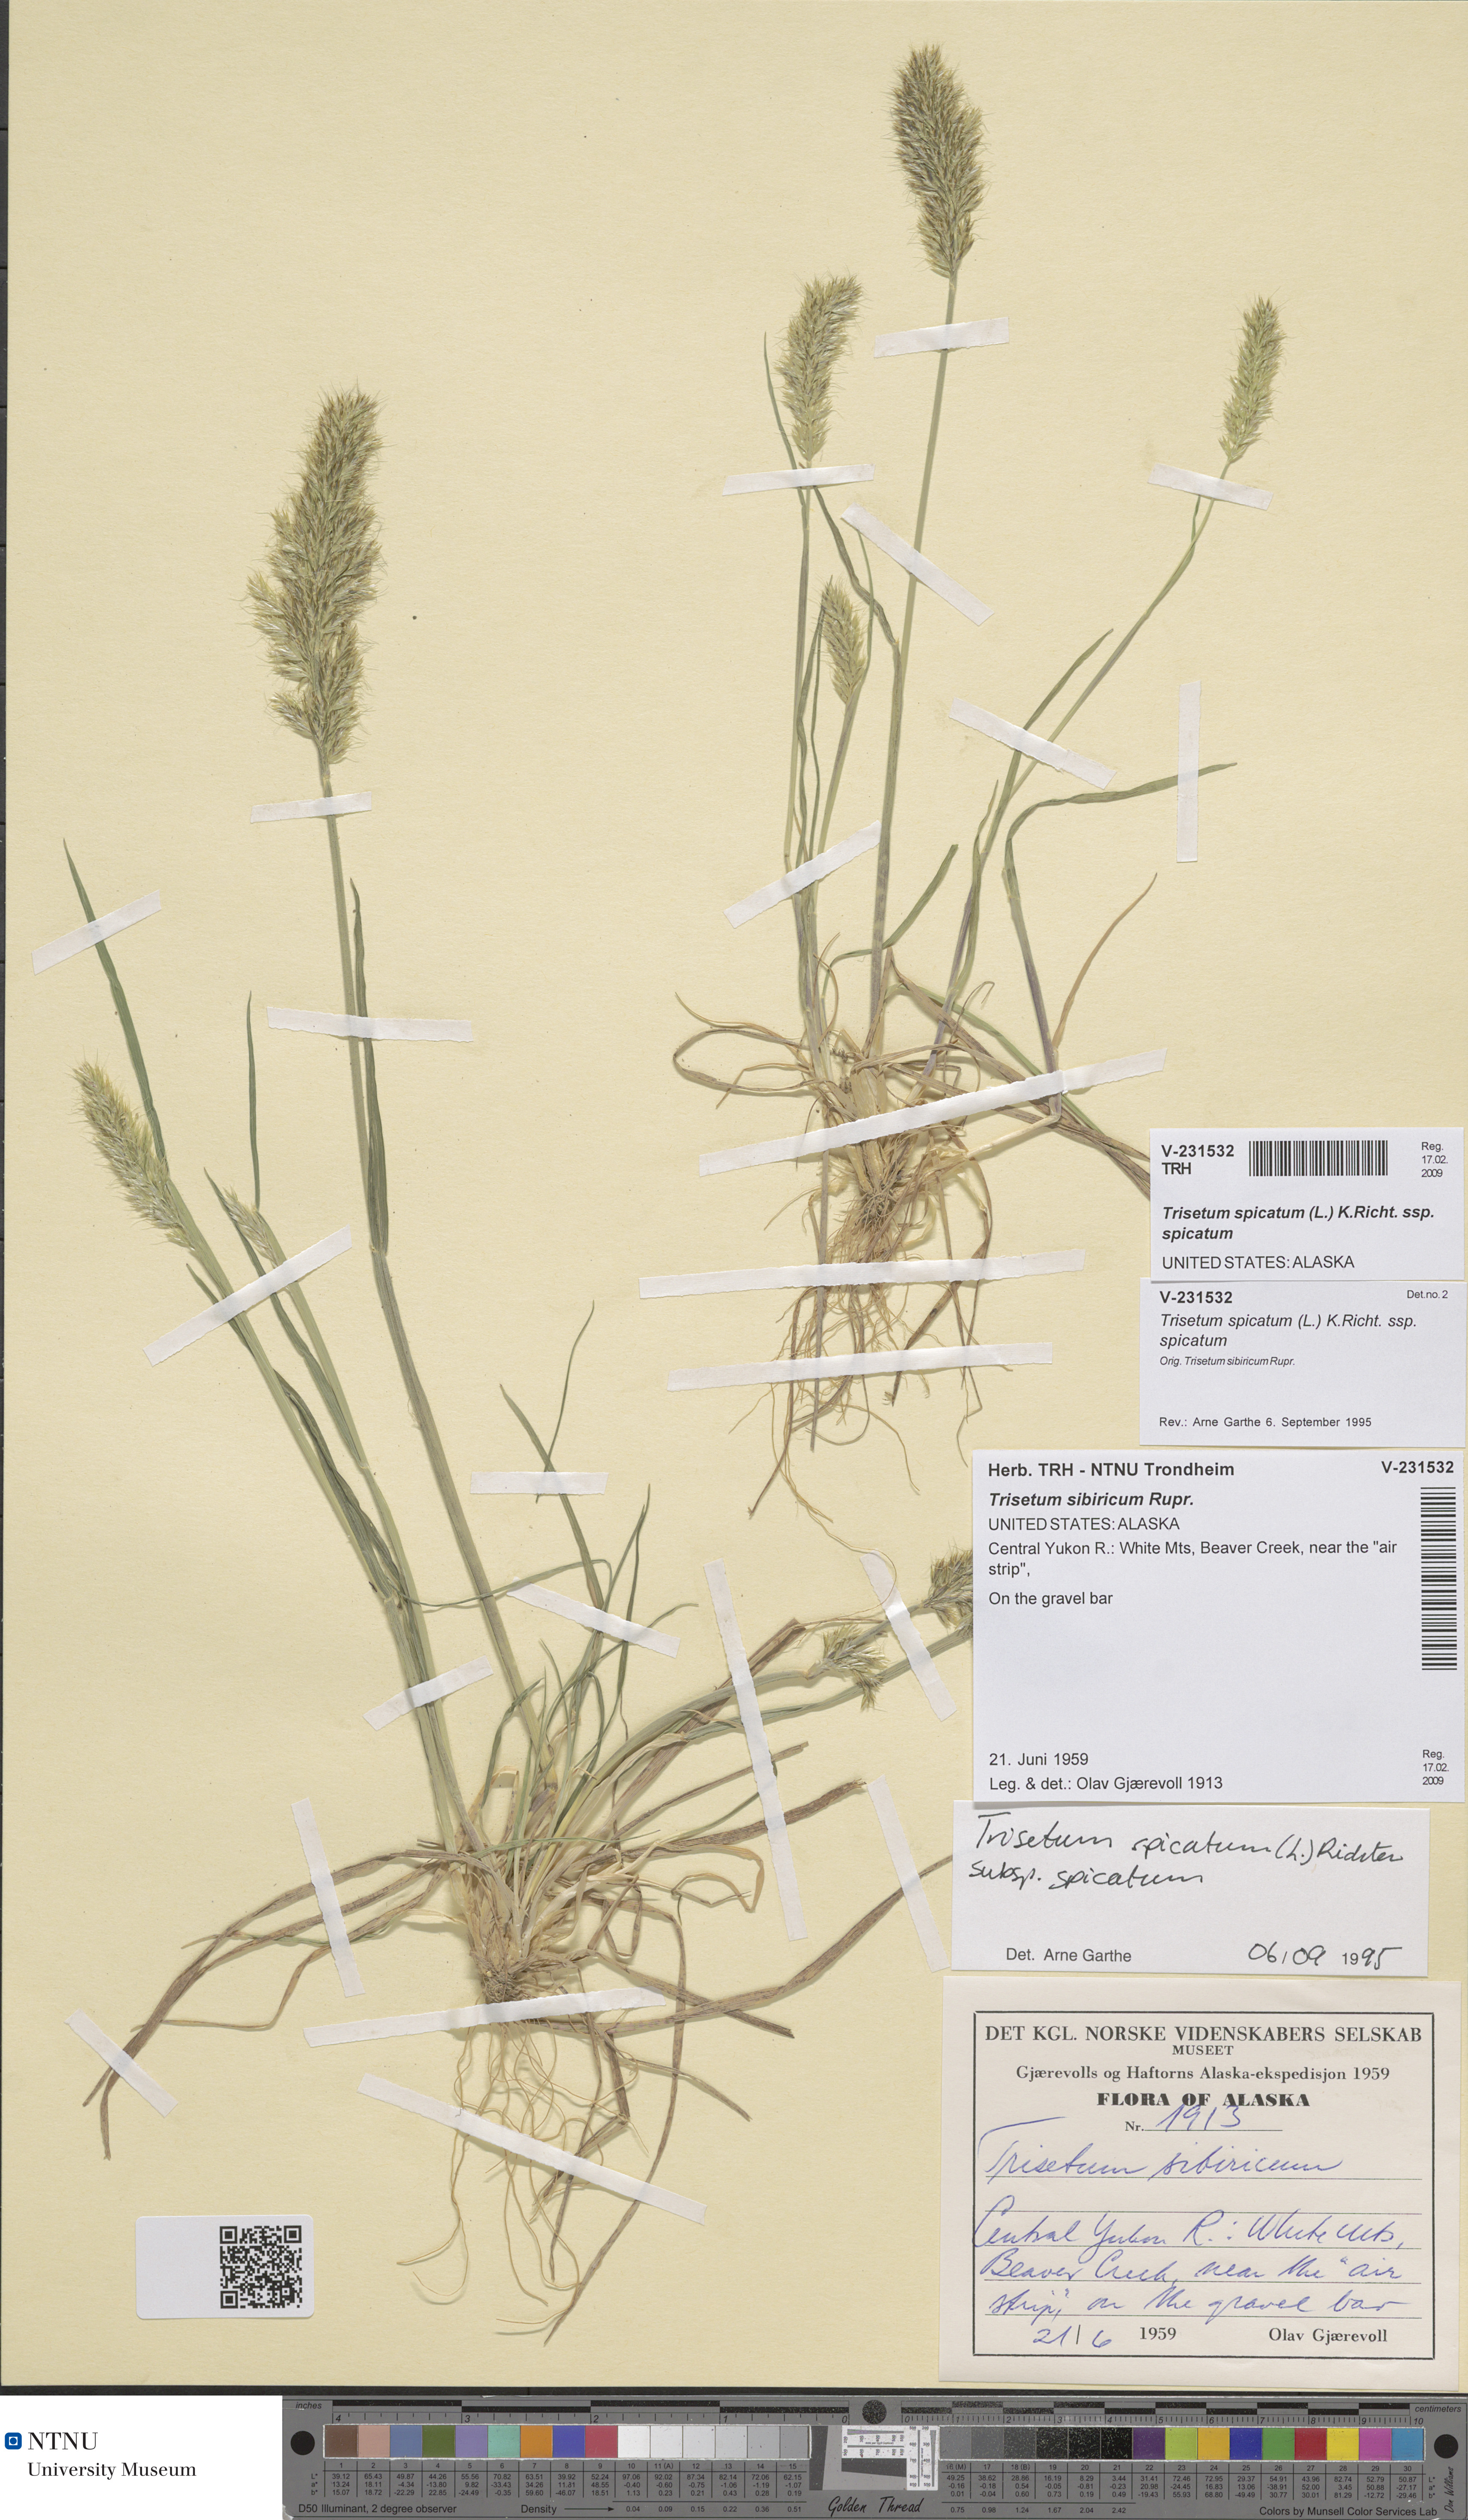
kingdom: Plantae
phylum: Tracheophyta
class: Liliopsida
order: Poales
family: Poaceae
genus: Koeleria
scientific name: Koeleria spicata
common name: Mountain trisetum
